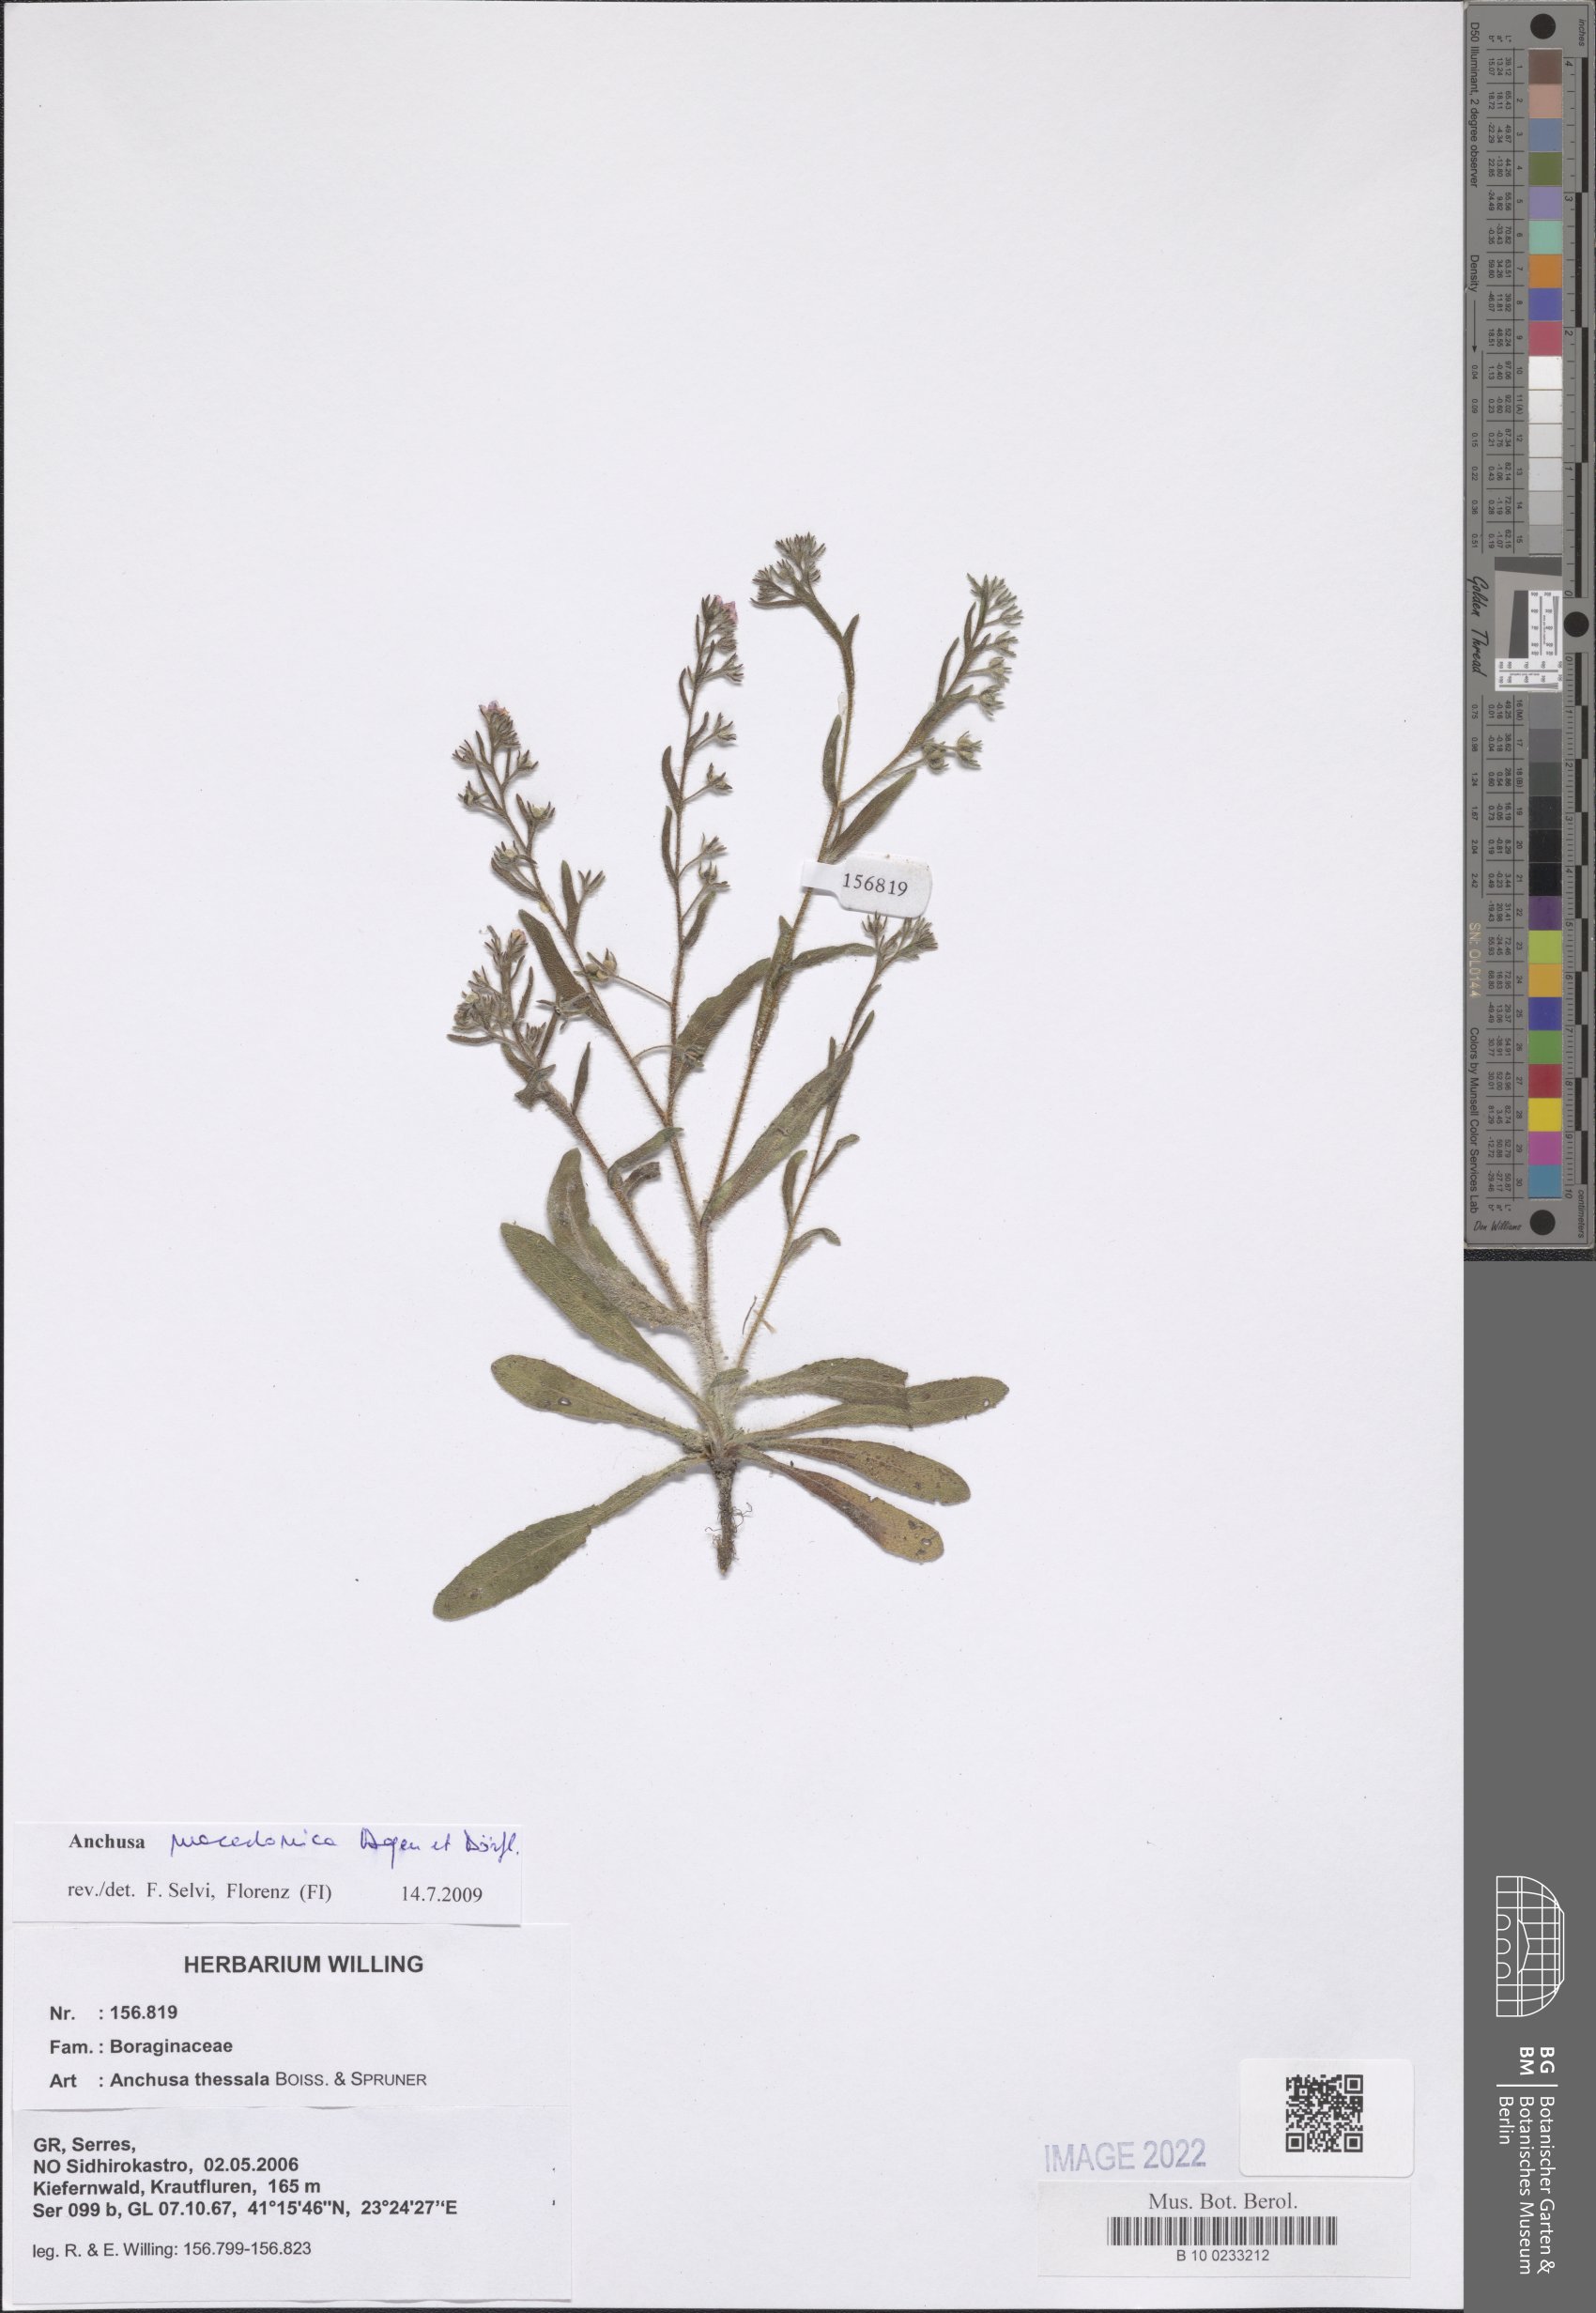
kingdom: Plantae
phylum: Tracheophyta
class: Magnoliopsida
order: Boraginales
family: Boraginaceae
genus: Anchusa
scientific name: Anchusa thessala
